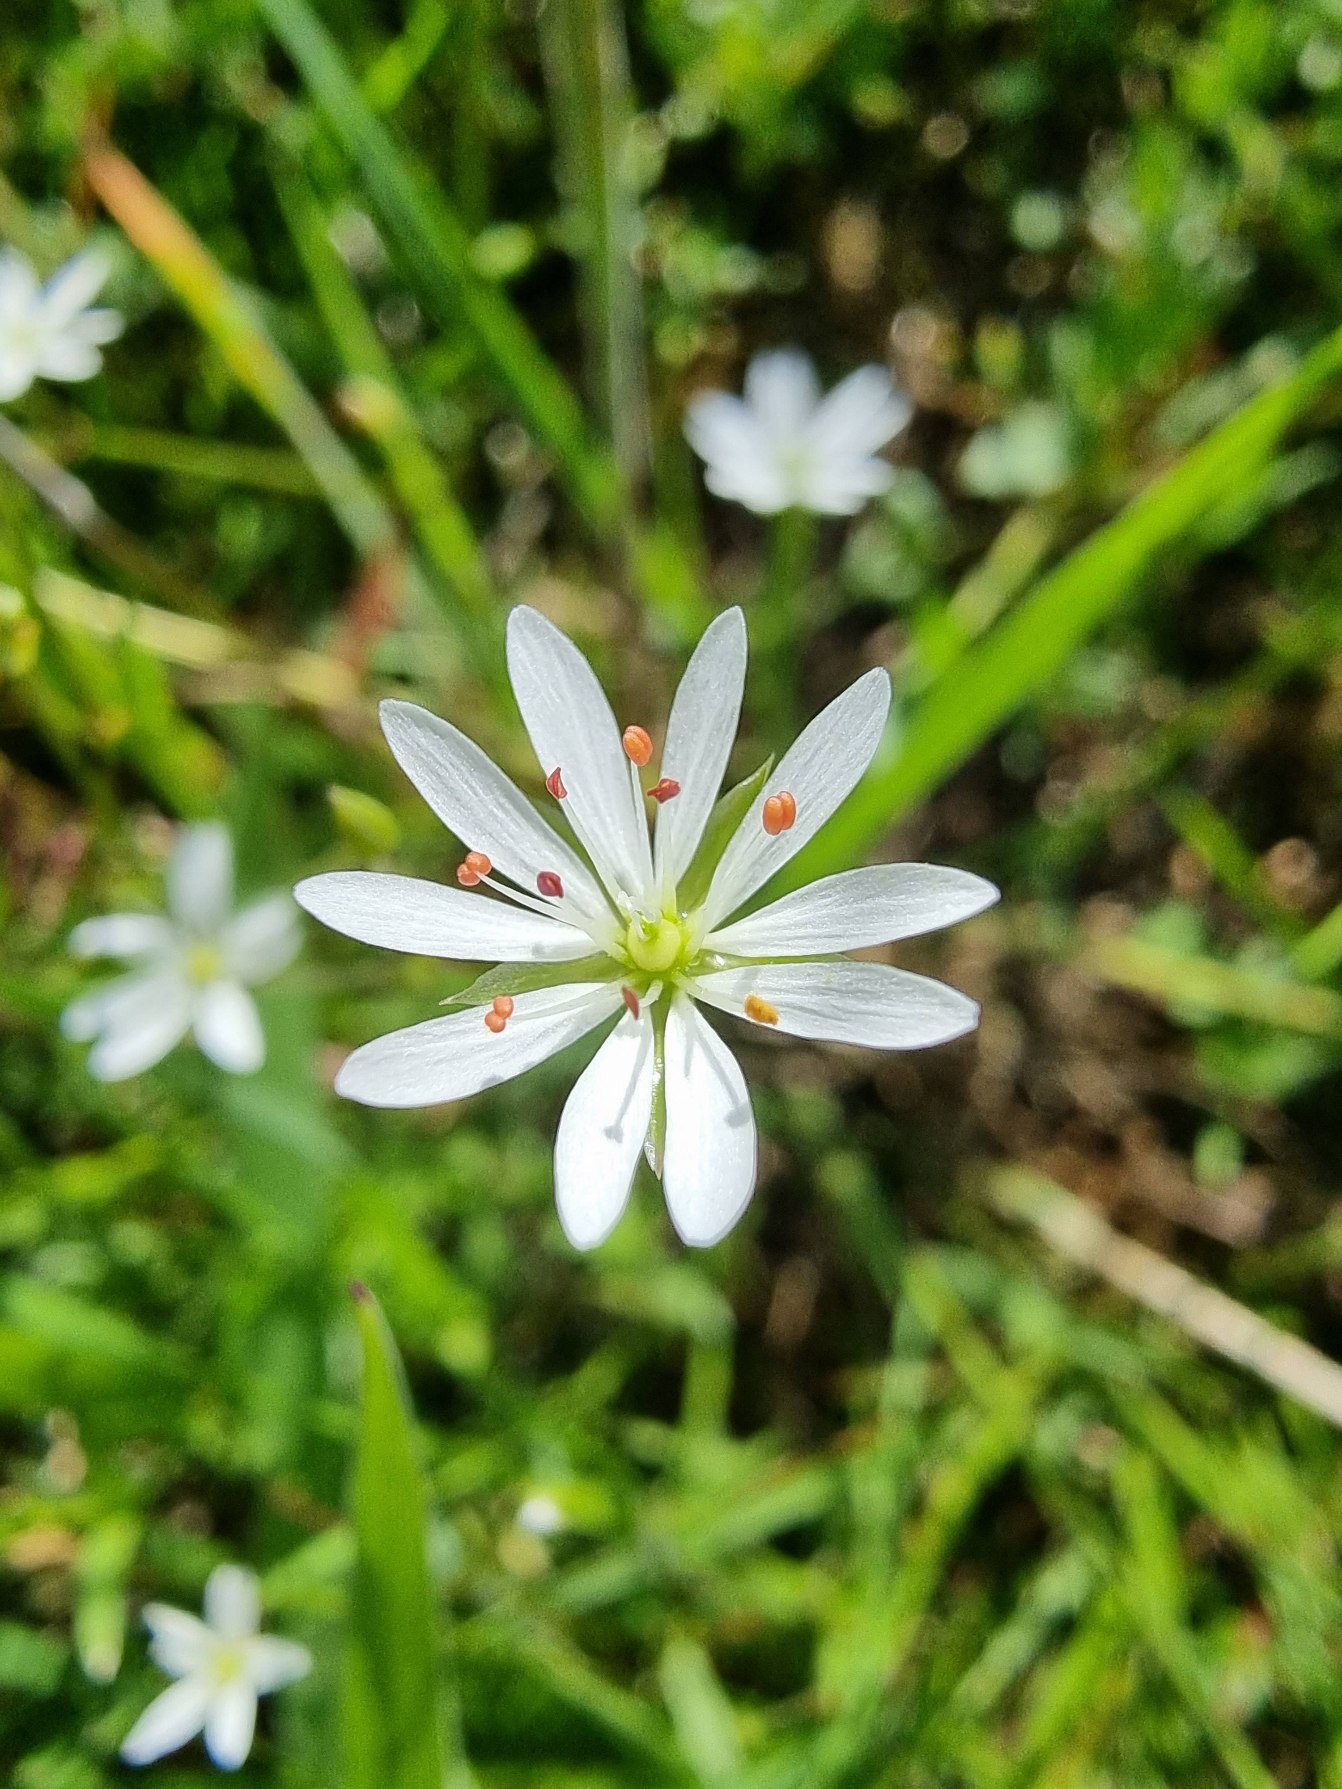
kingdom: Plantae
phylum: Tracheophyta
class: Magnoliopsida
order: Caryophyllales
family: Caryophyllaceae
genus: Stellaria
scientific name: Stellaria graminea
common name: Græsbladet fladstjerne
